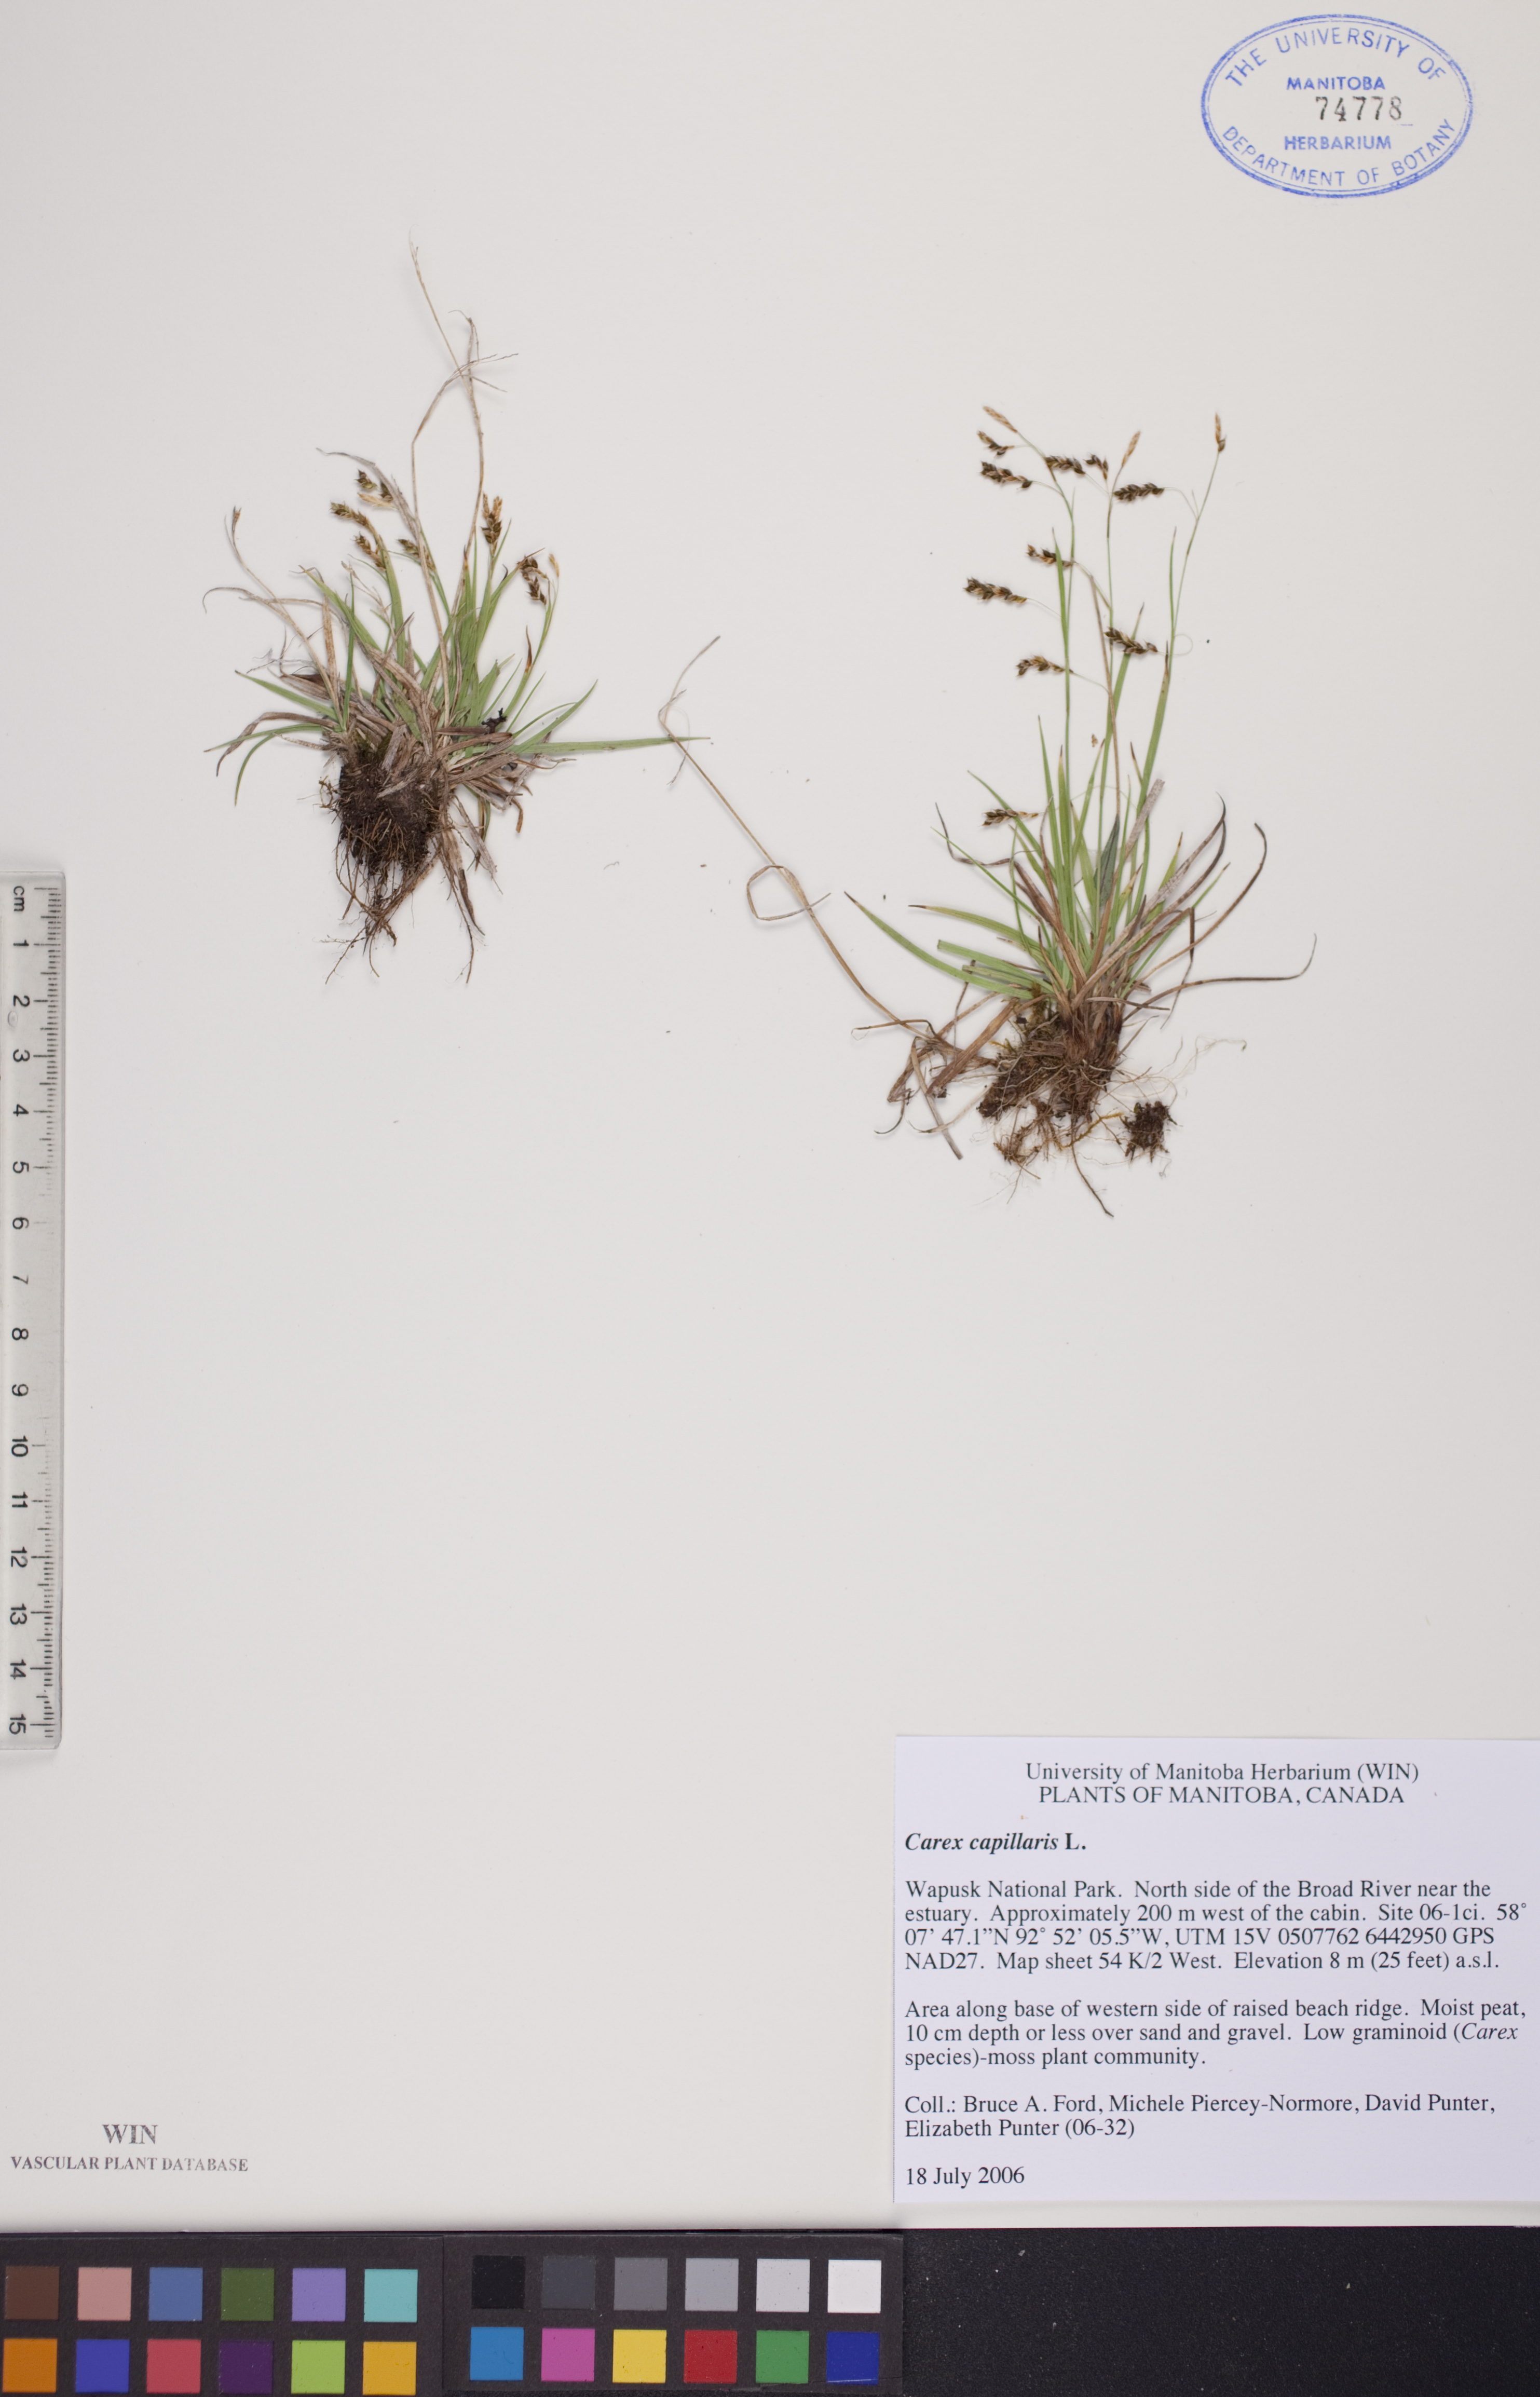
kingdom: Plantae
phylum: Tracheophyta
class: Liliopsida
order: Poales
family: Cyperaceae
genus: Carex
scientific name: Carex capillaris
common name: Hair sedge
